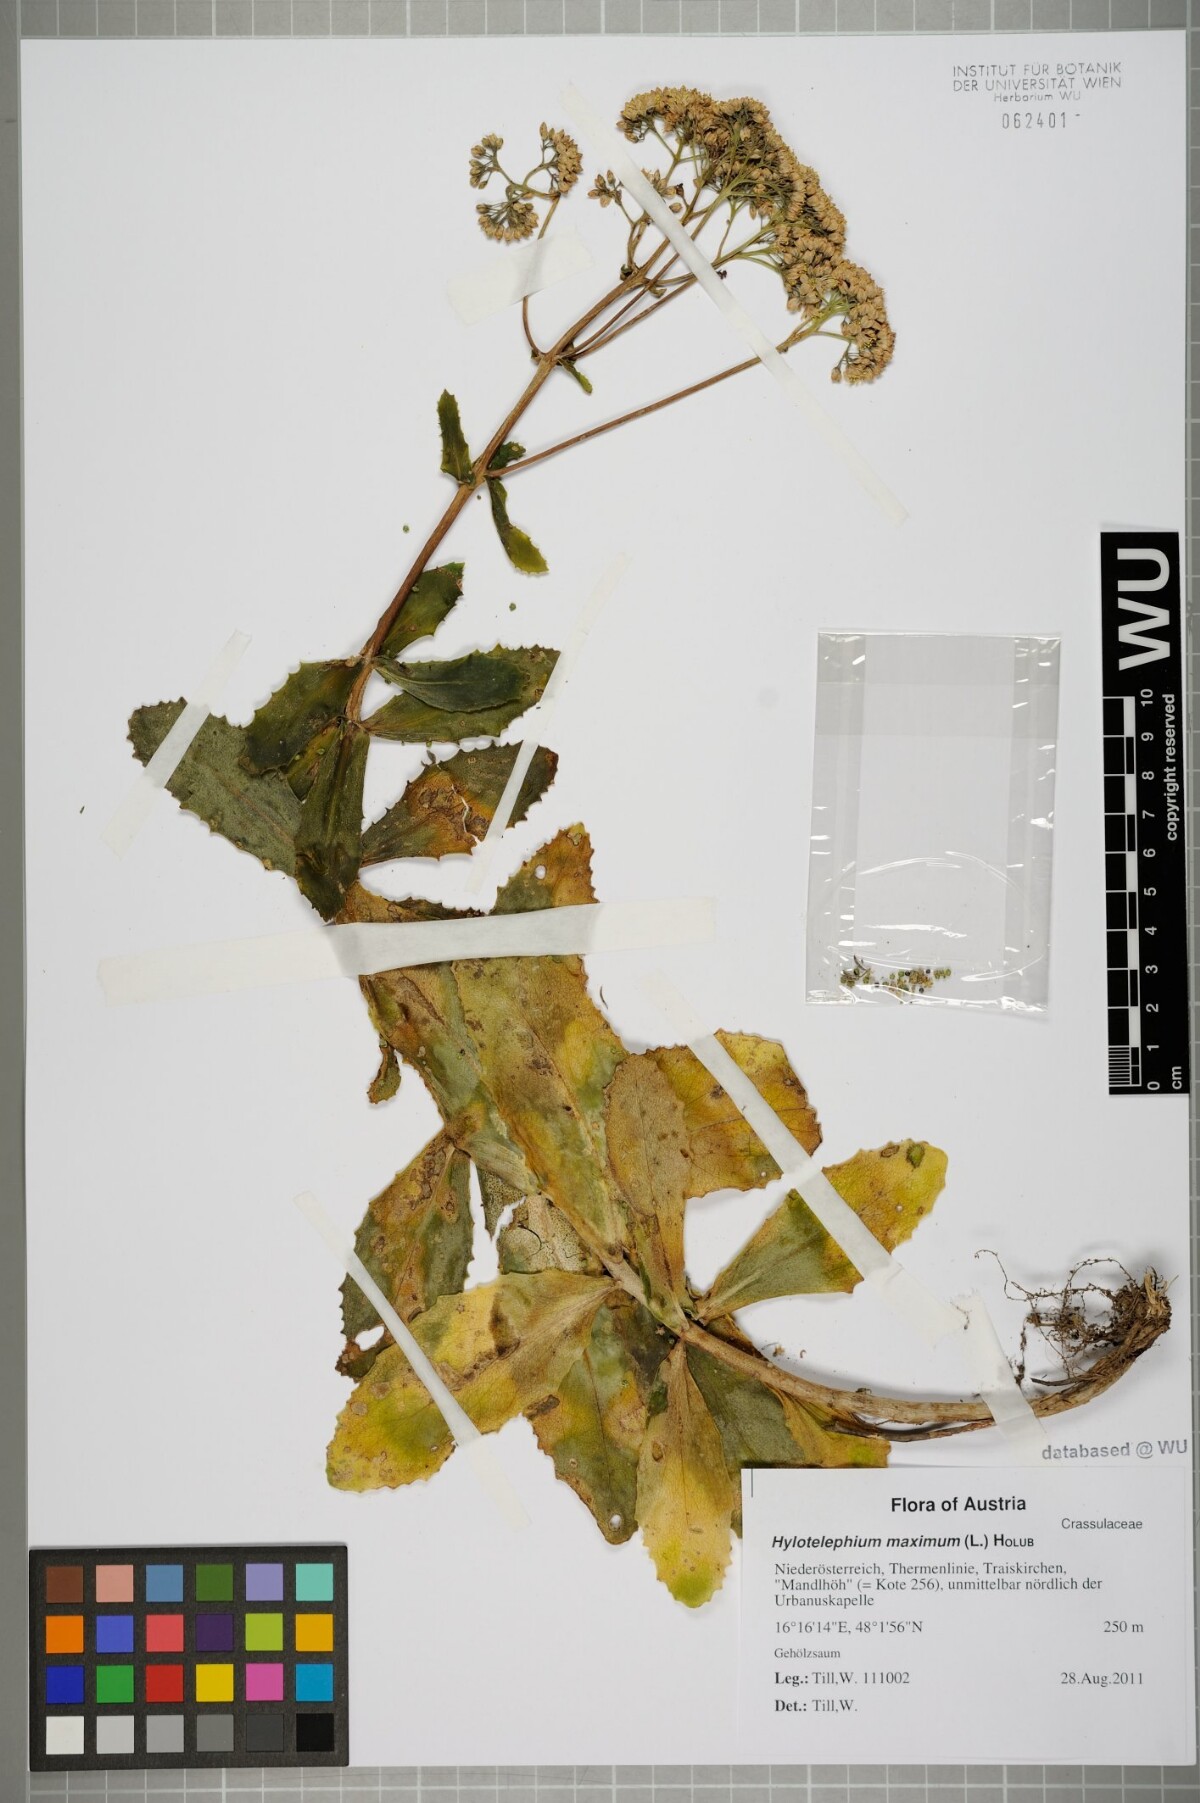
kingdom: Plantae
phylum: Tracheophyta
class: Magnoliopsida
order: Saxifragales
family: Crassulaceae
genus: Hylotelephium
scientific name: Hylotelephium maximum
